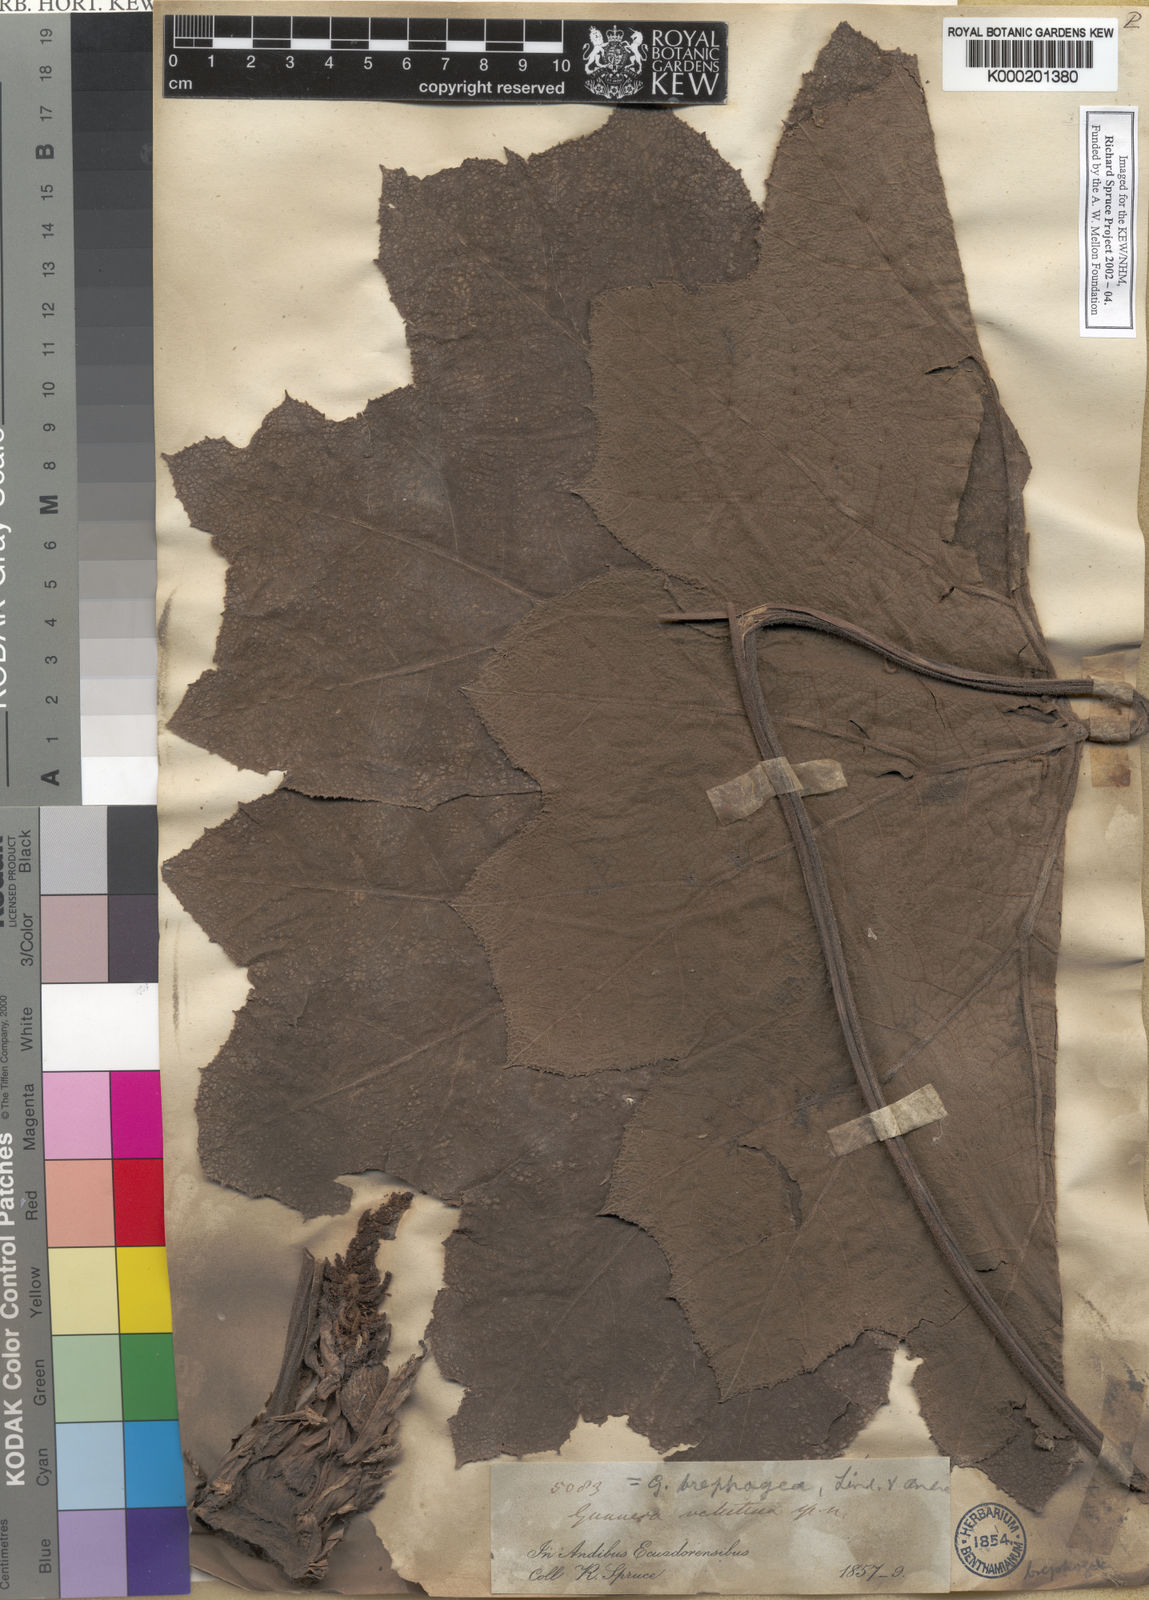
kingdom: Plantae
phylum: Tracheophyta
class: Magnoliopsida
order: Gunnerales
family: Gunneraceae
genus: Gunnera
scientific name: Gunnera
